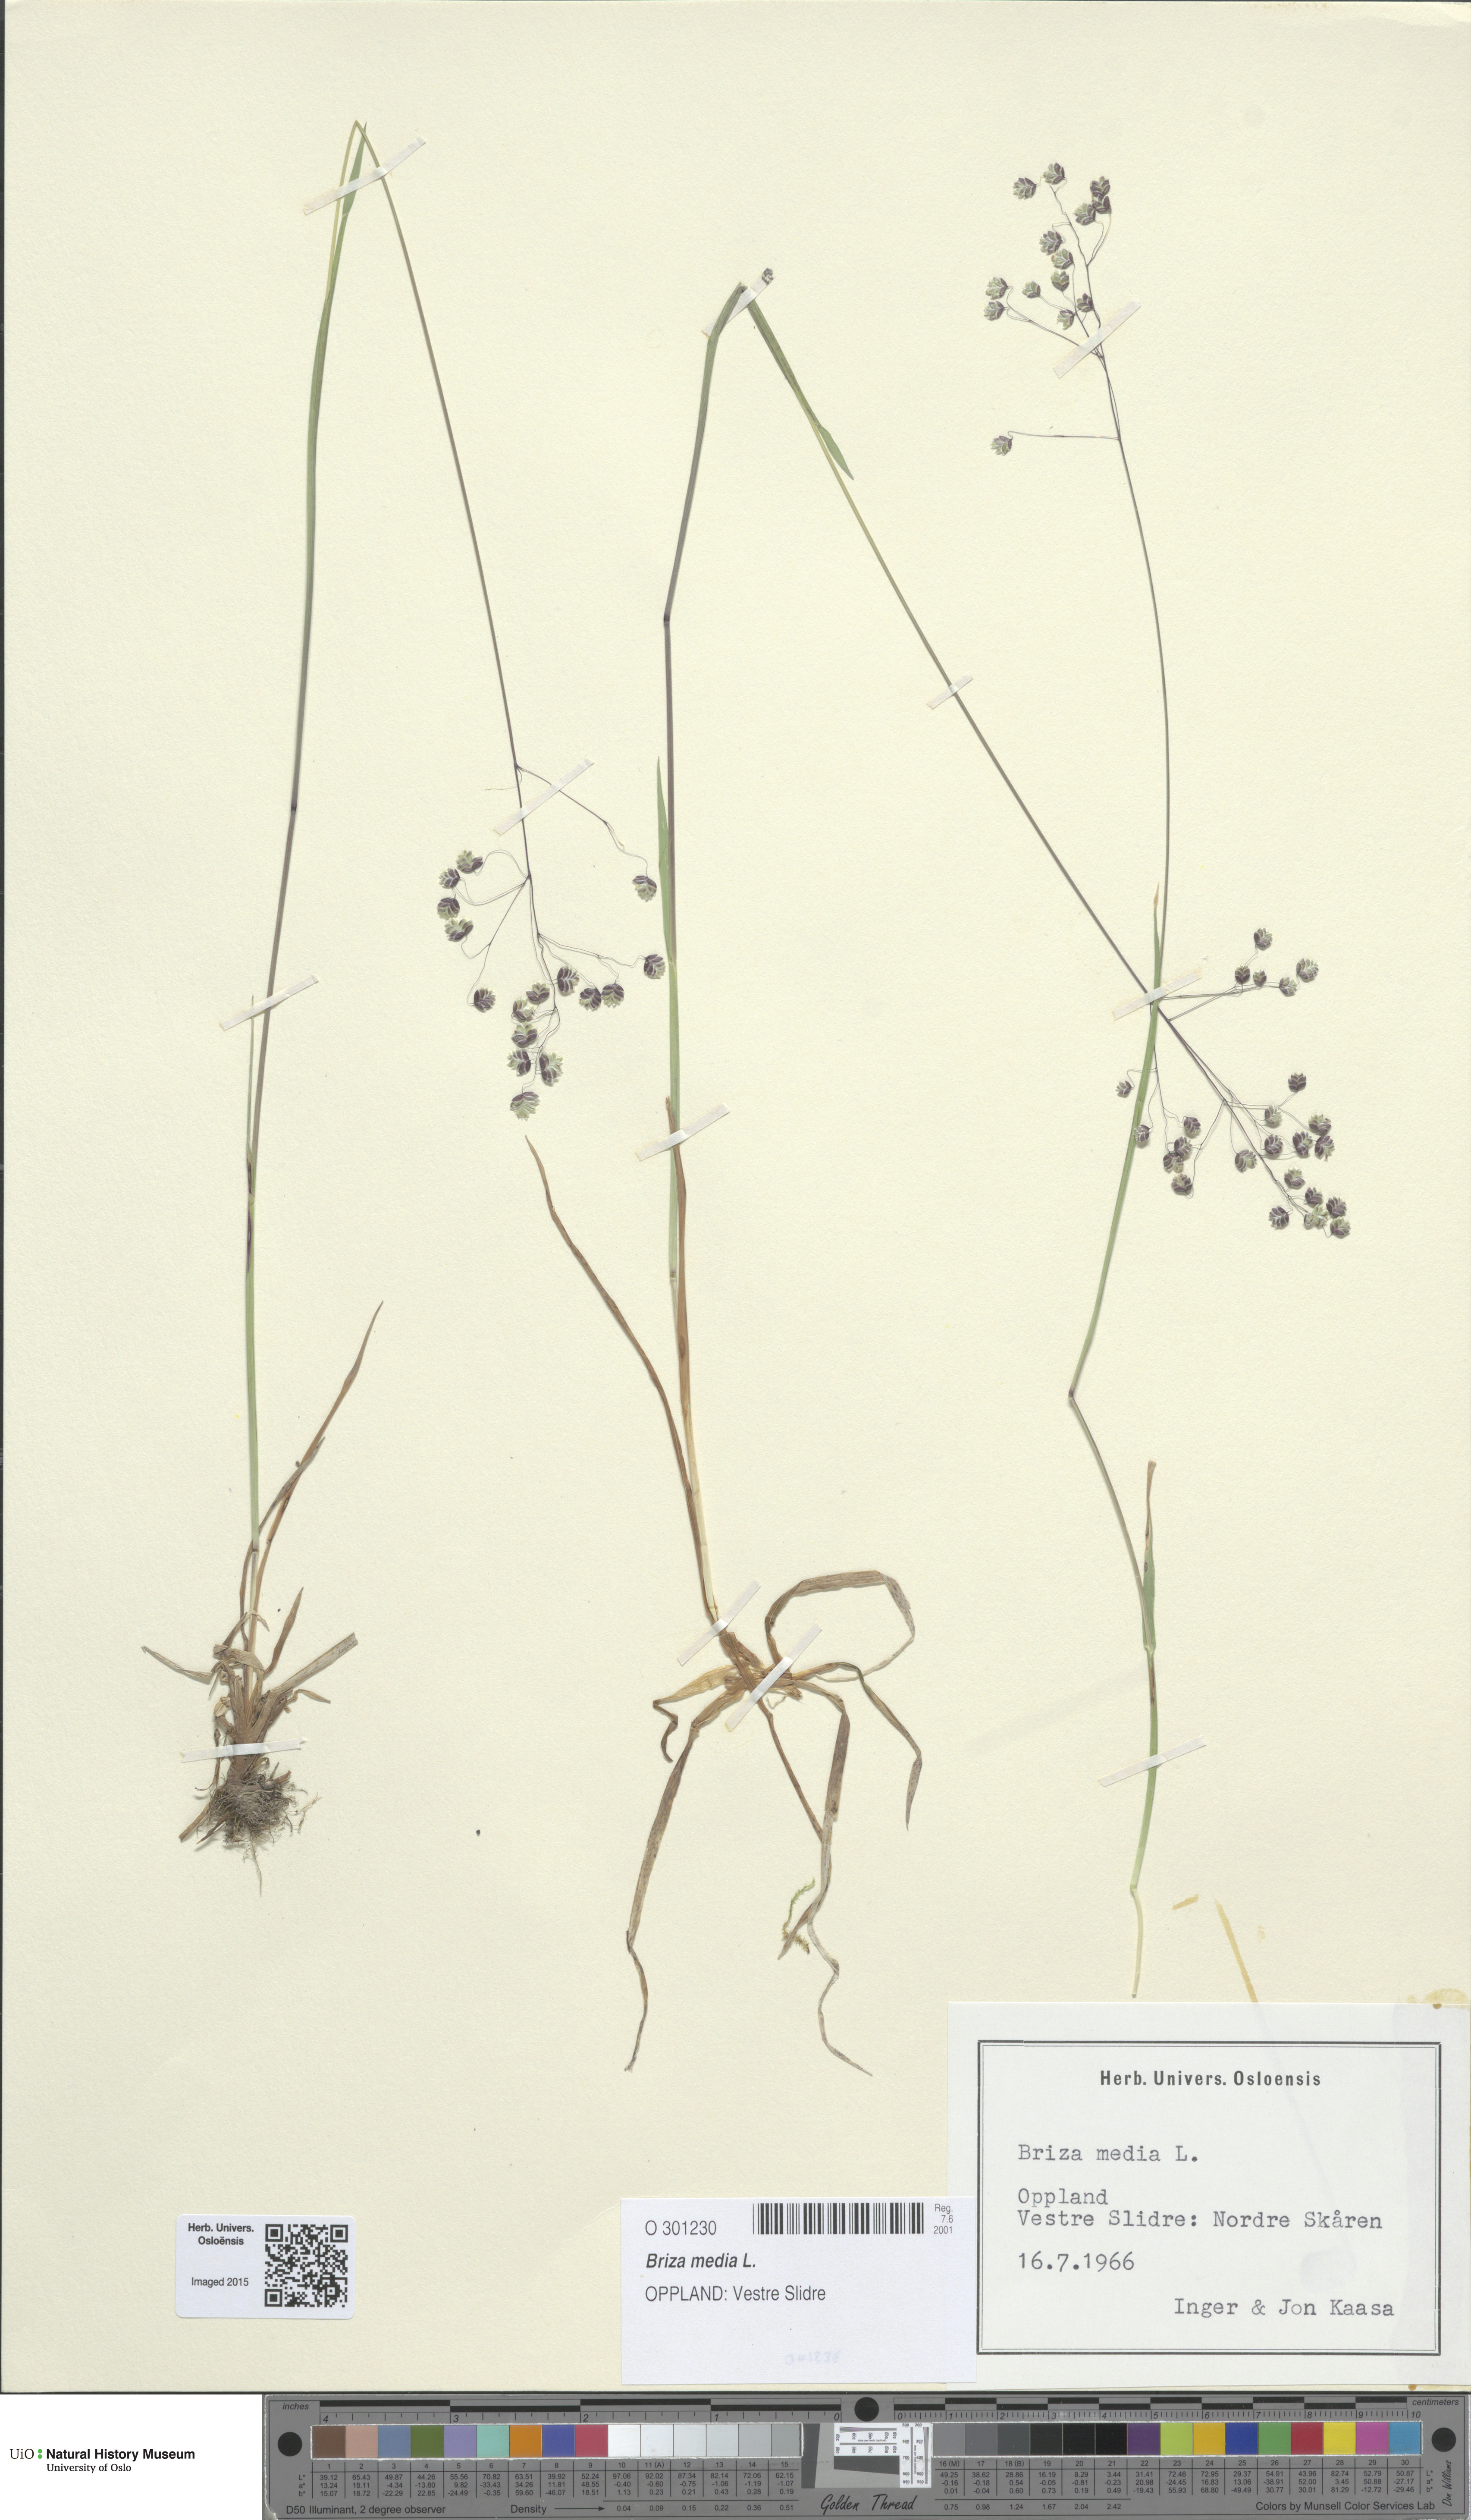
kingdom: Plantae
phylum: Tracheophyta
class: Liliopsida
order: Poales
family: Poaceae
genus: Briza
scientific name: Briza media
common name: Quaking grass
